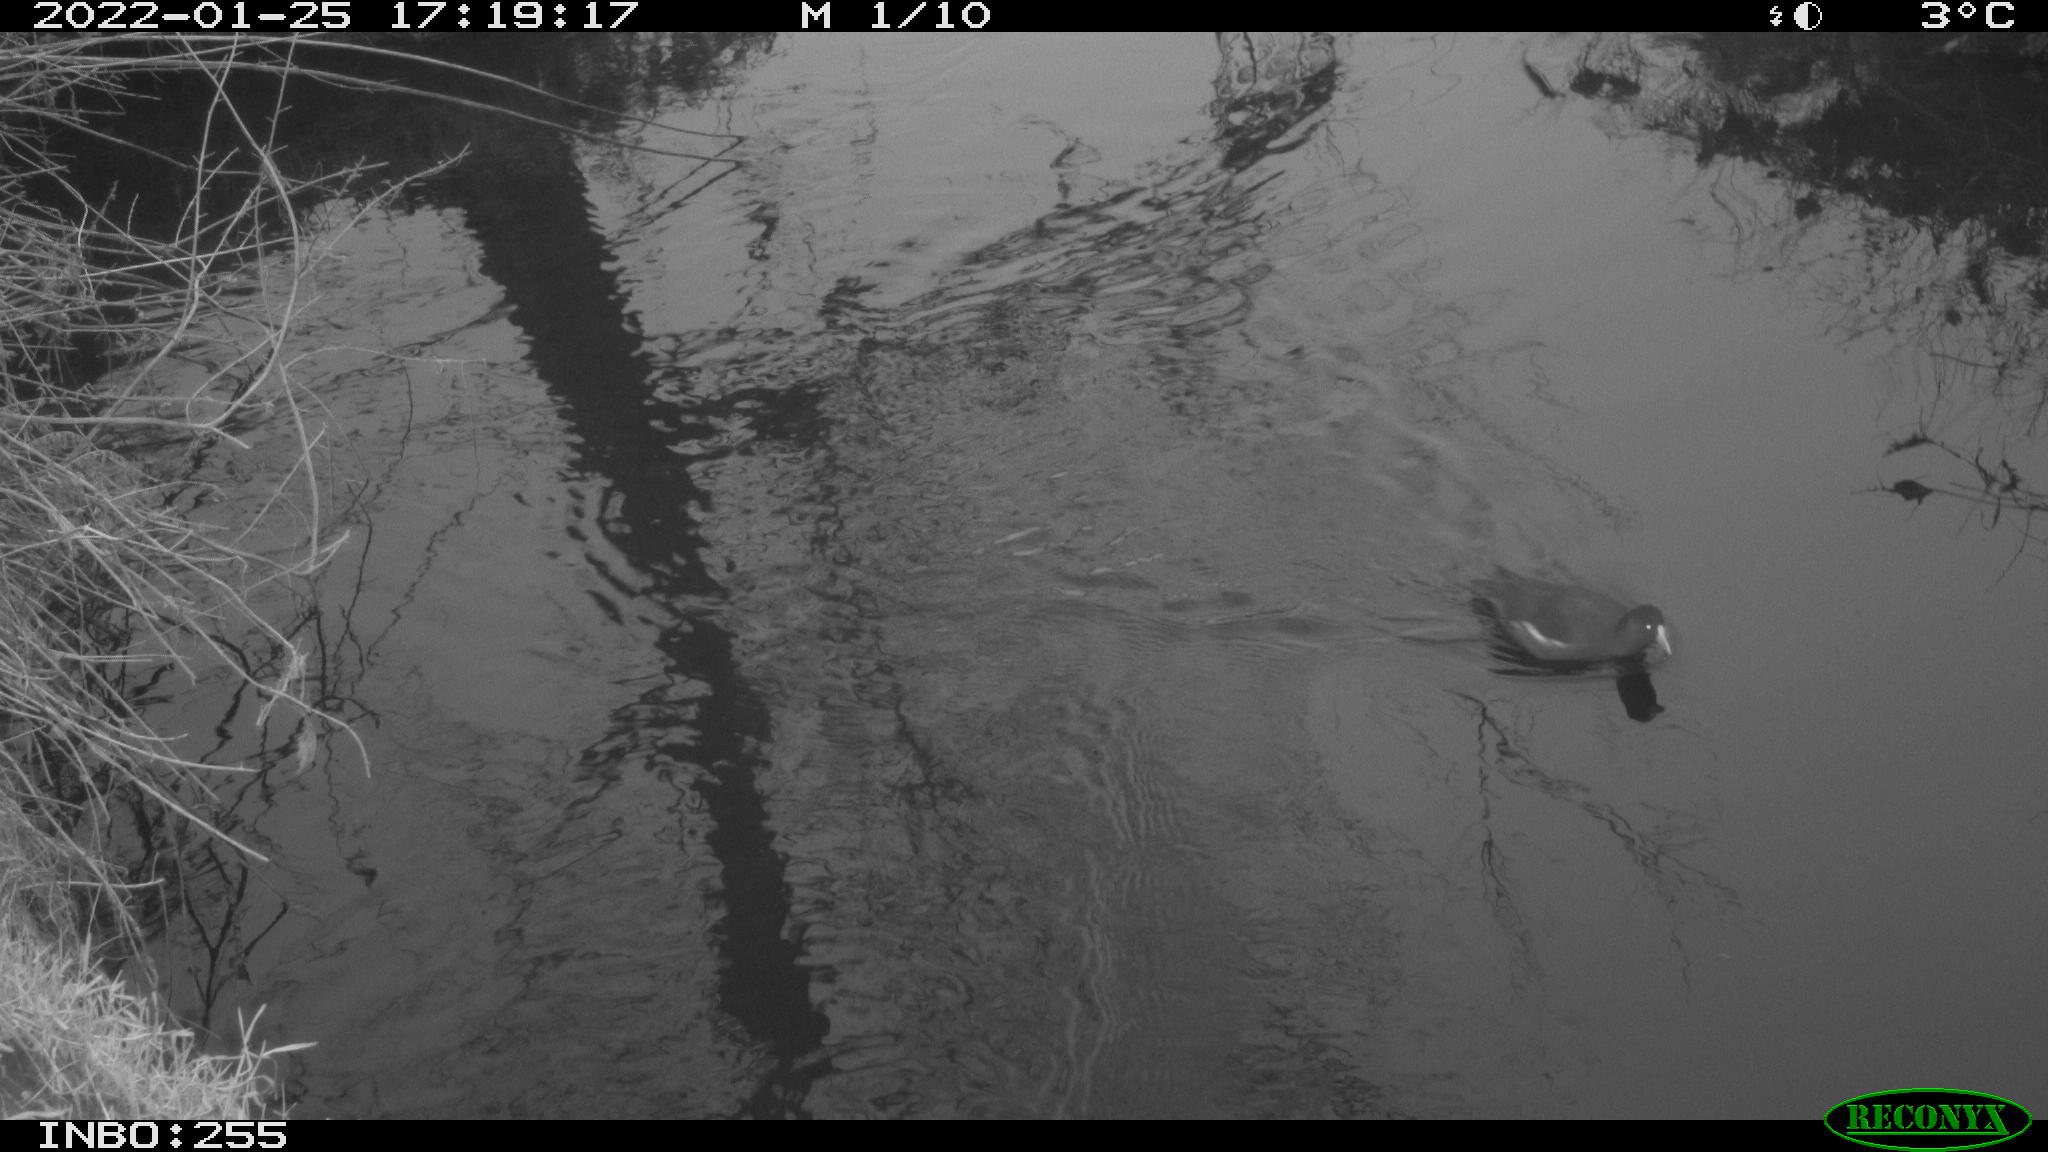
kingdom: Animalia
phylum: Chordata
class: Aves
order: Gruiformes
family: Rallidae
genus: Gallinula
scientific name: Gallinula chloropus
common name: Common moorhen
